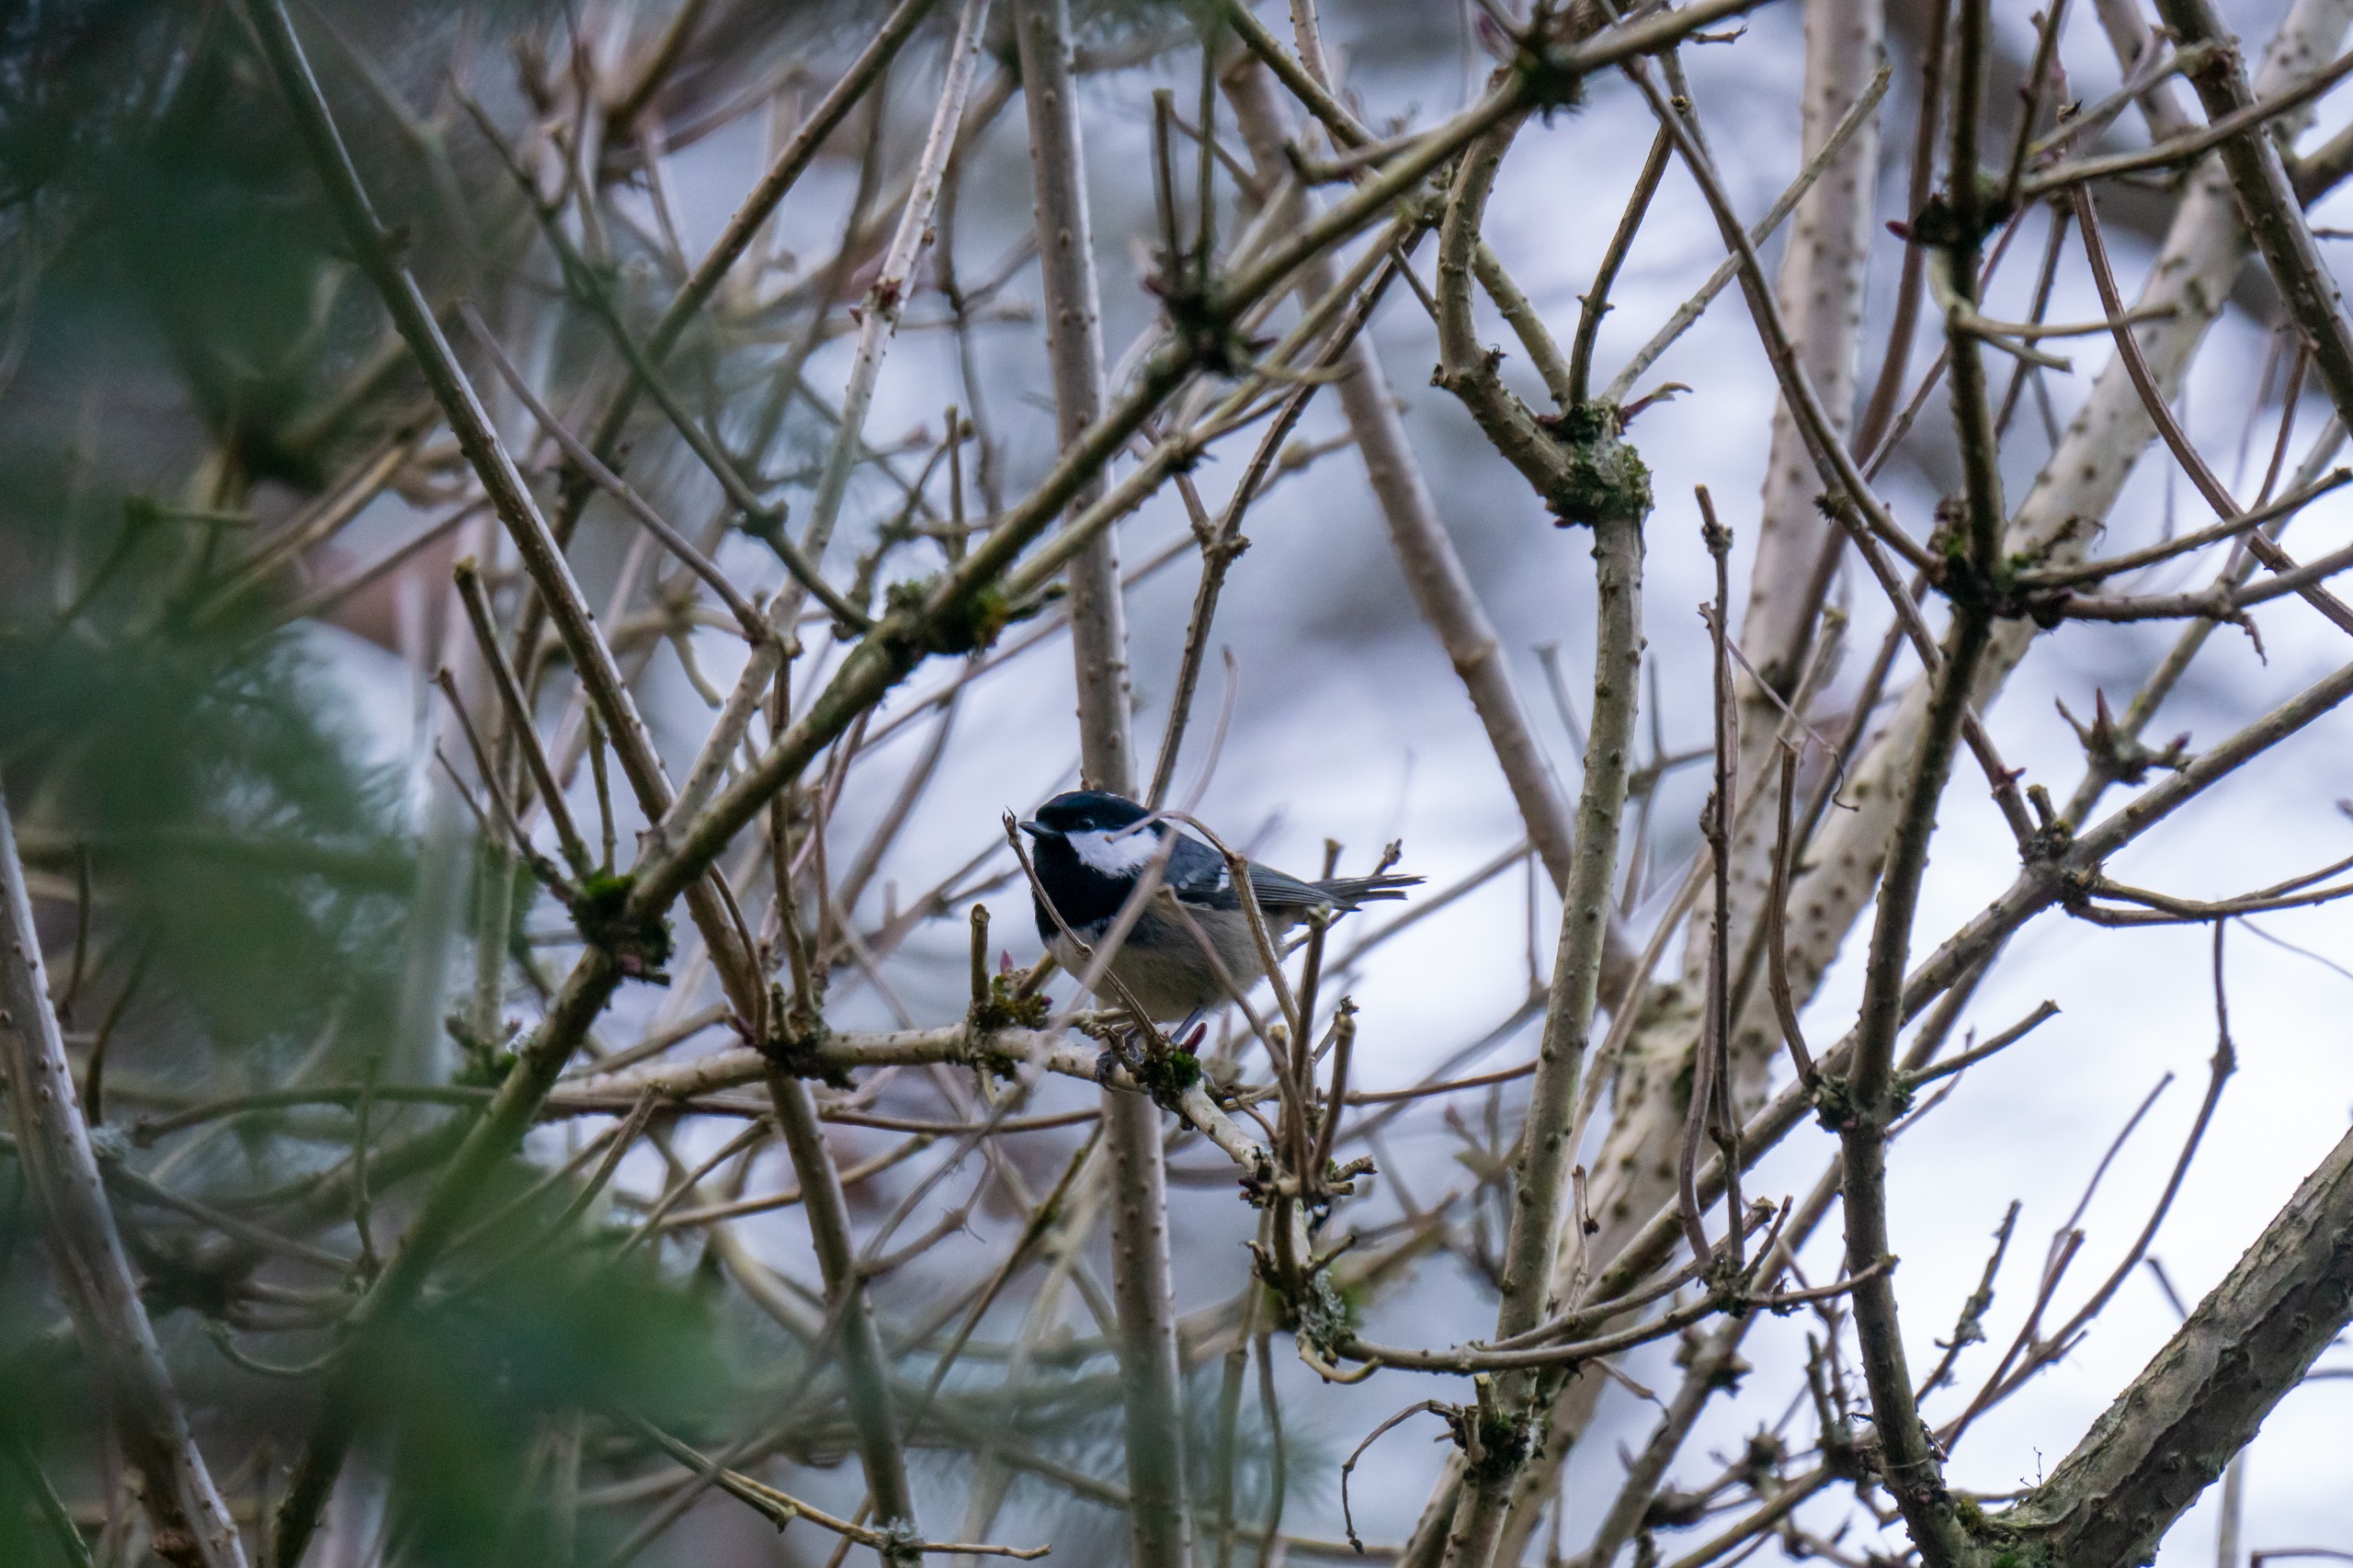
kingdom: Animalia
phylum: Chordata
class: Aves
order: Passeriformes
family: Paridae
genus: Periparus
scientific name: Periparus ater
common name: Sortmejse
